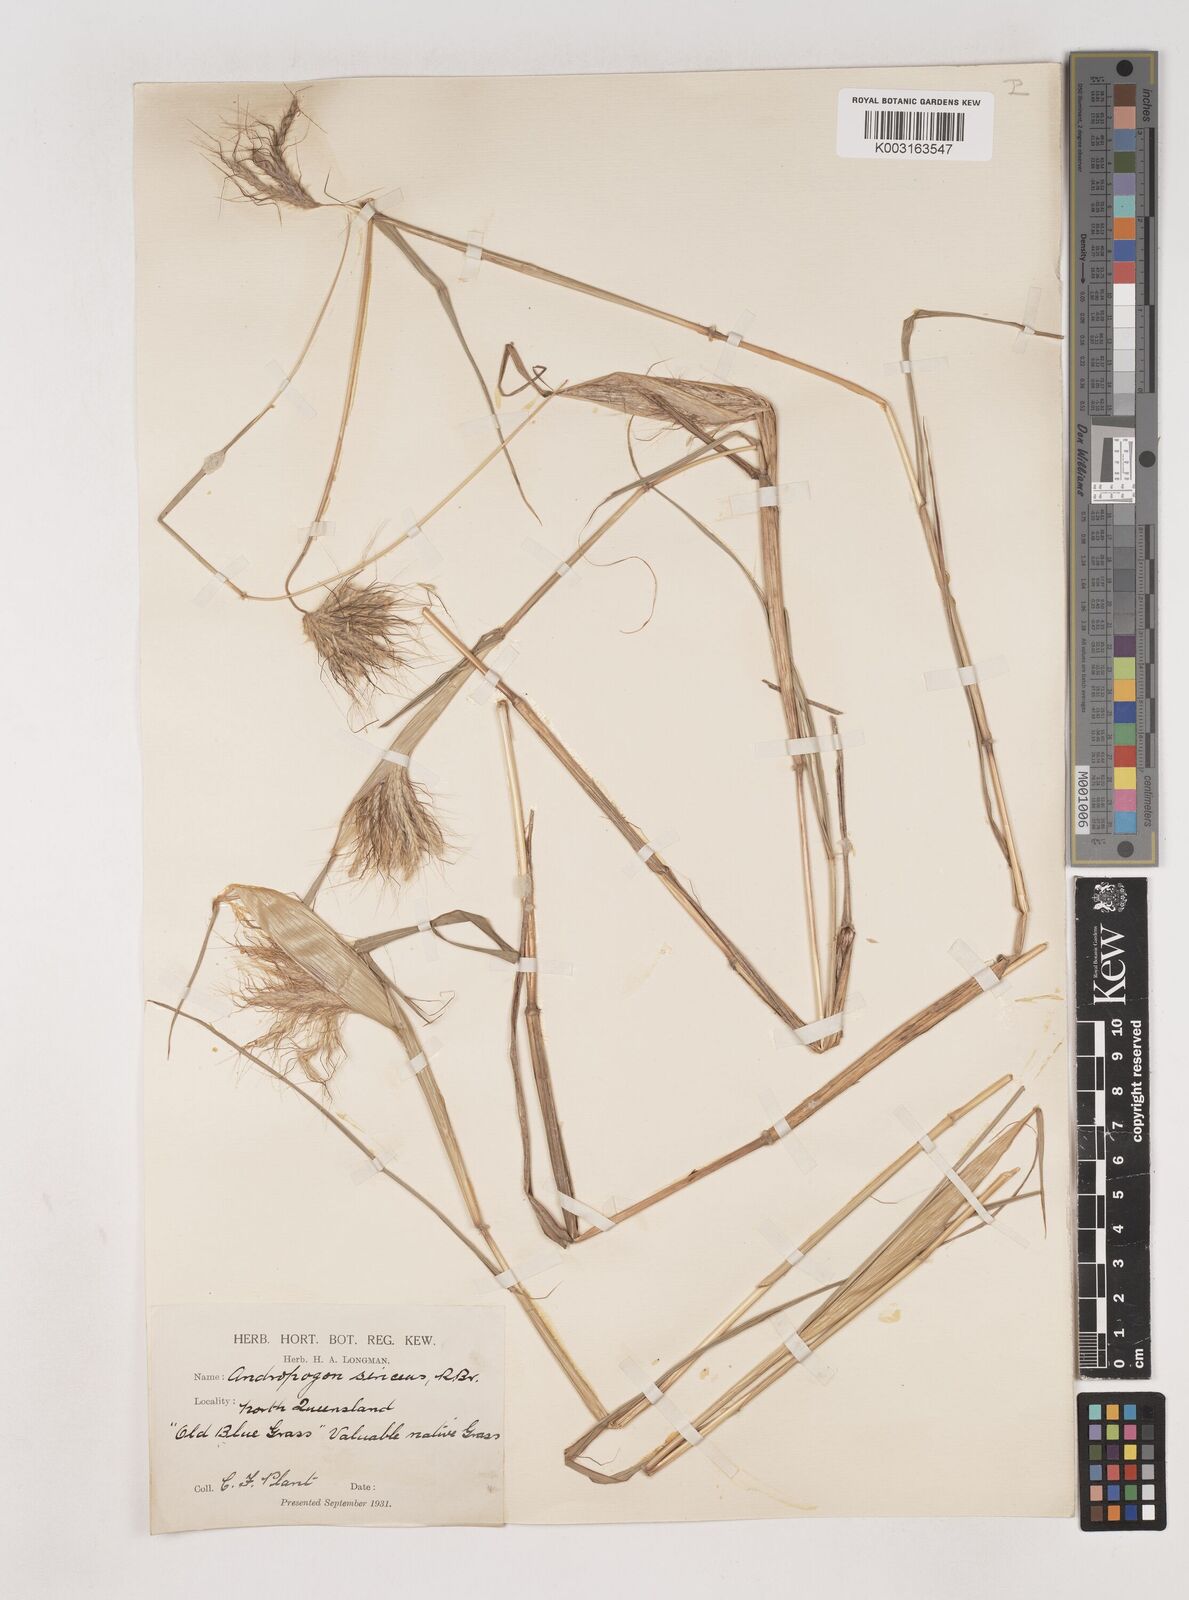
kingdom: Plantae
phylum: Tracheophyta
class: Liliopsida
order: Poales
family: Poaceae
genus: Dichanthium
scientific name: Dichanthium sericeum
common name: Silky bluestem
